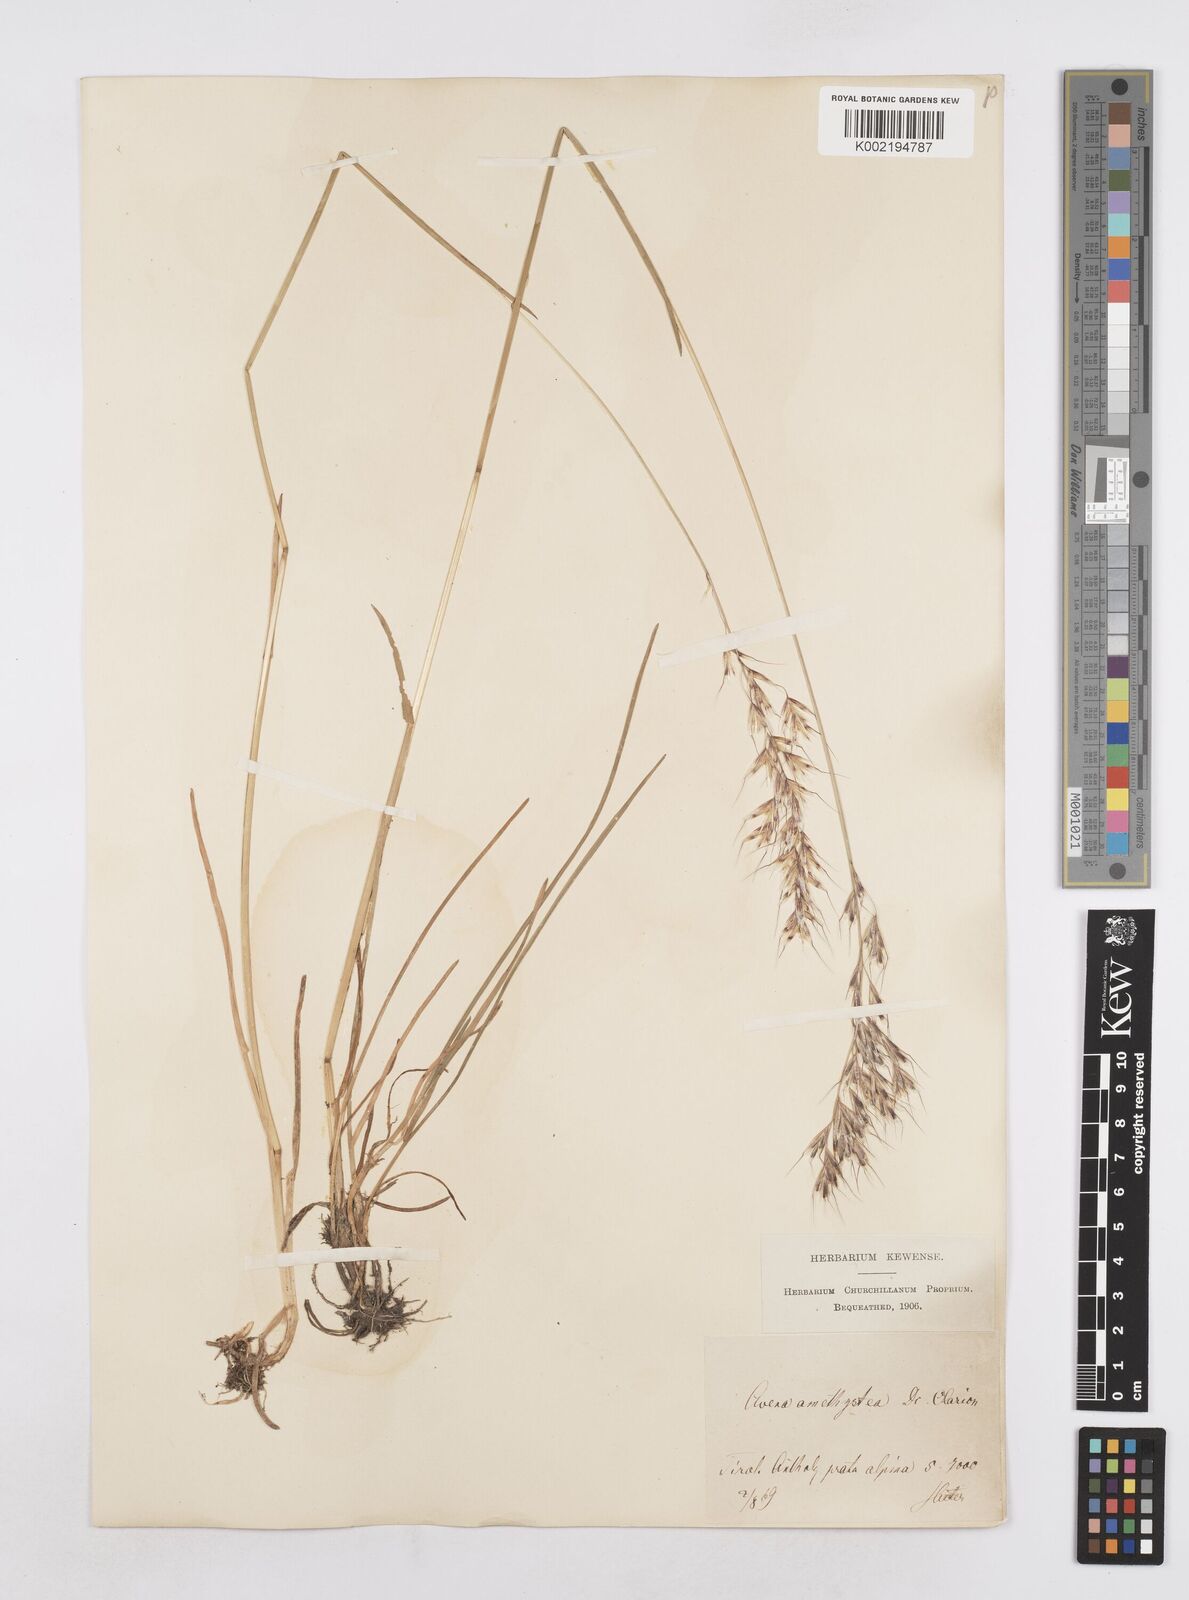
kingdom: Plantae
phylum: Tracheophyta
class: Liliopsida
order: Poales
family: Poaceae
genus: Avenula
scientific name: Avenula pubescens
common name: Downy alpine oatgrass
